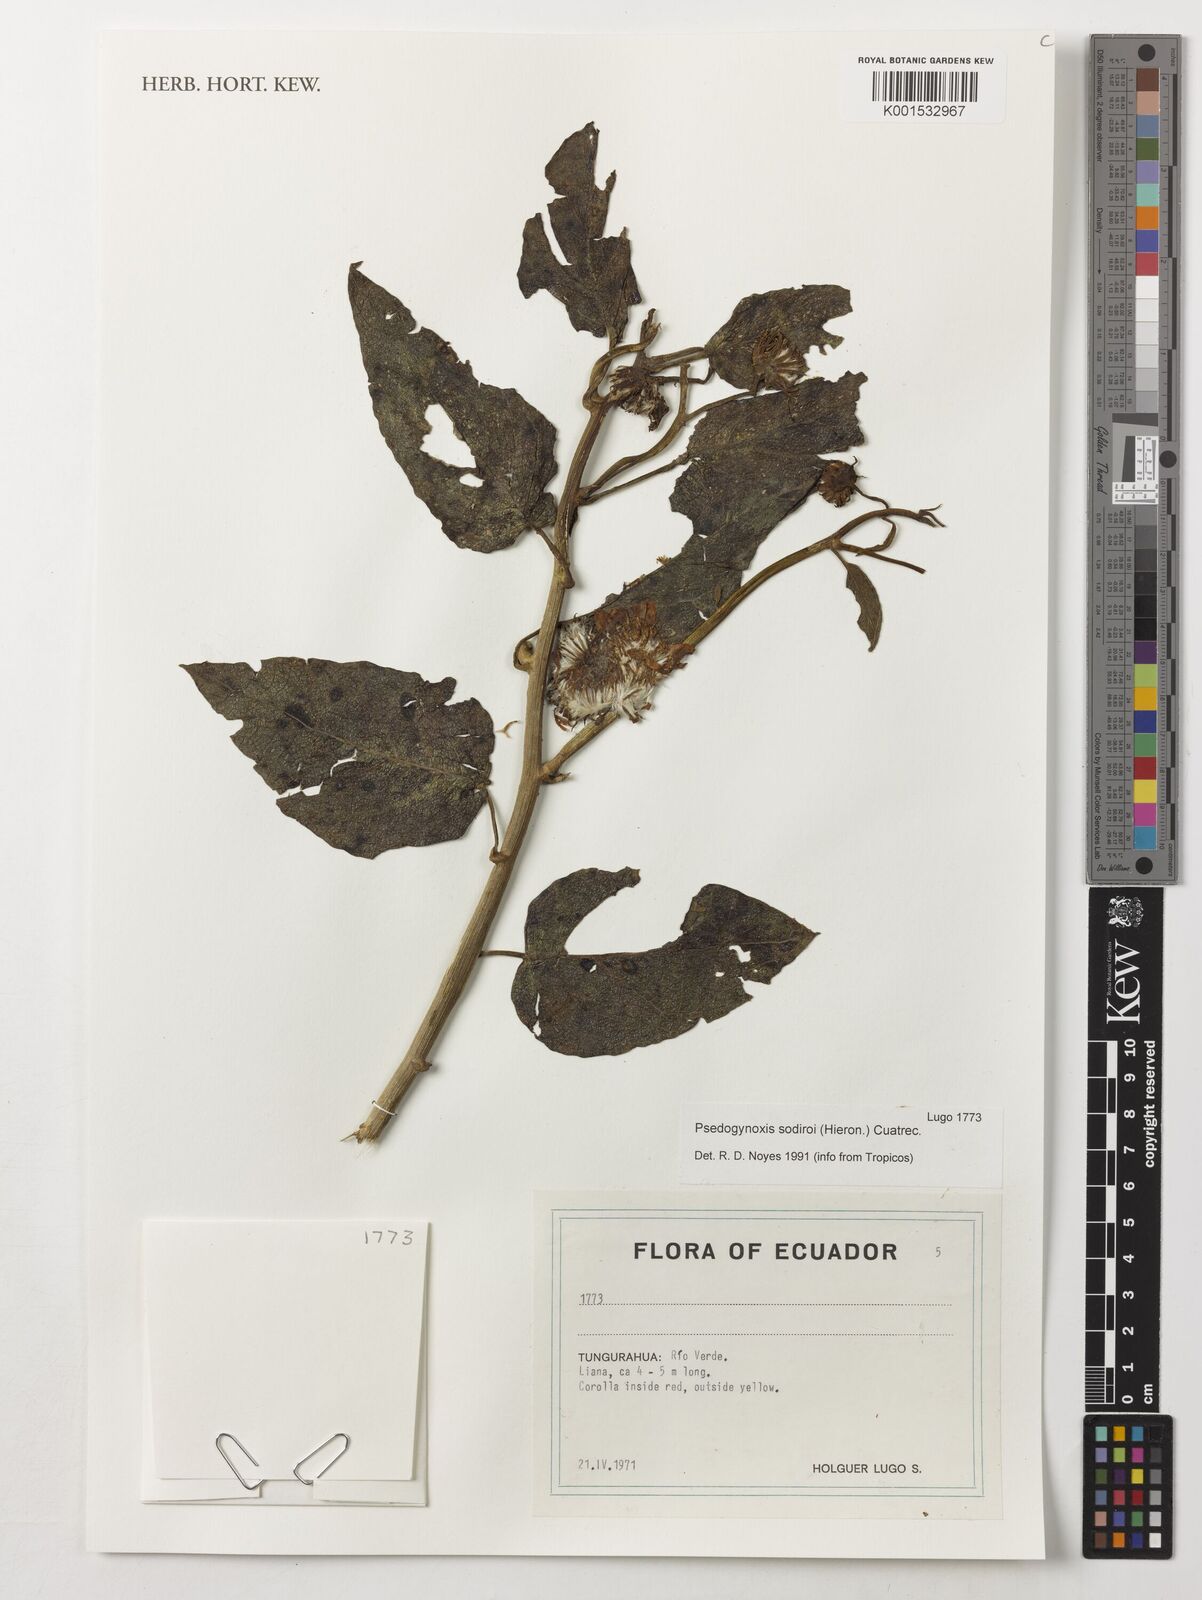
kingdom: Plantae
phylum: Tracheophyta
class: Magnoliopsida
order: Asterales
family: Asteraceae
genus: Pseudogynoxys
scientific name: Pseudogynoxys sodiroi
